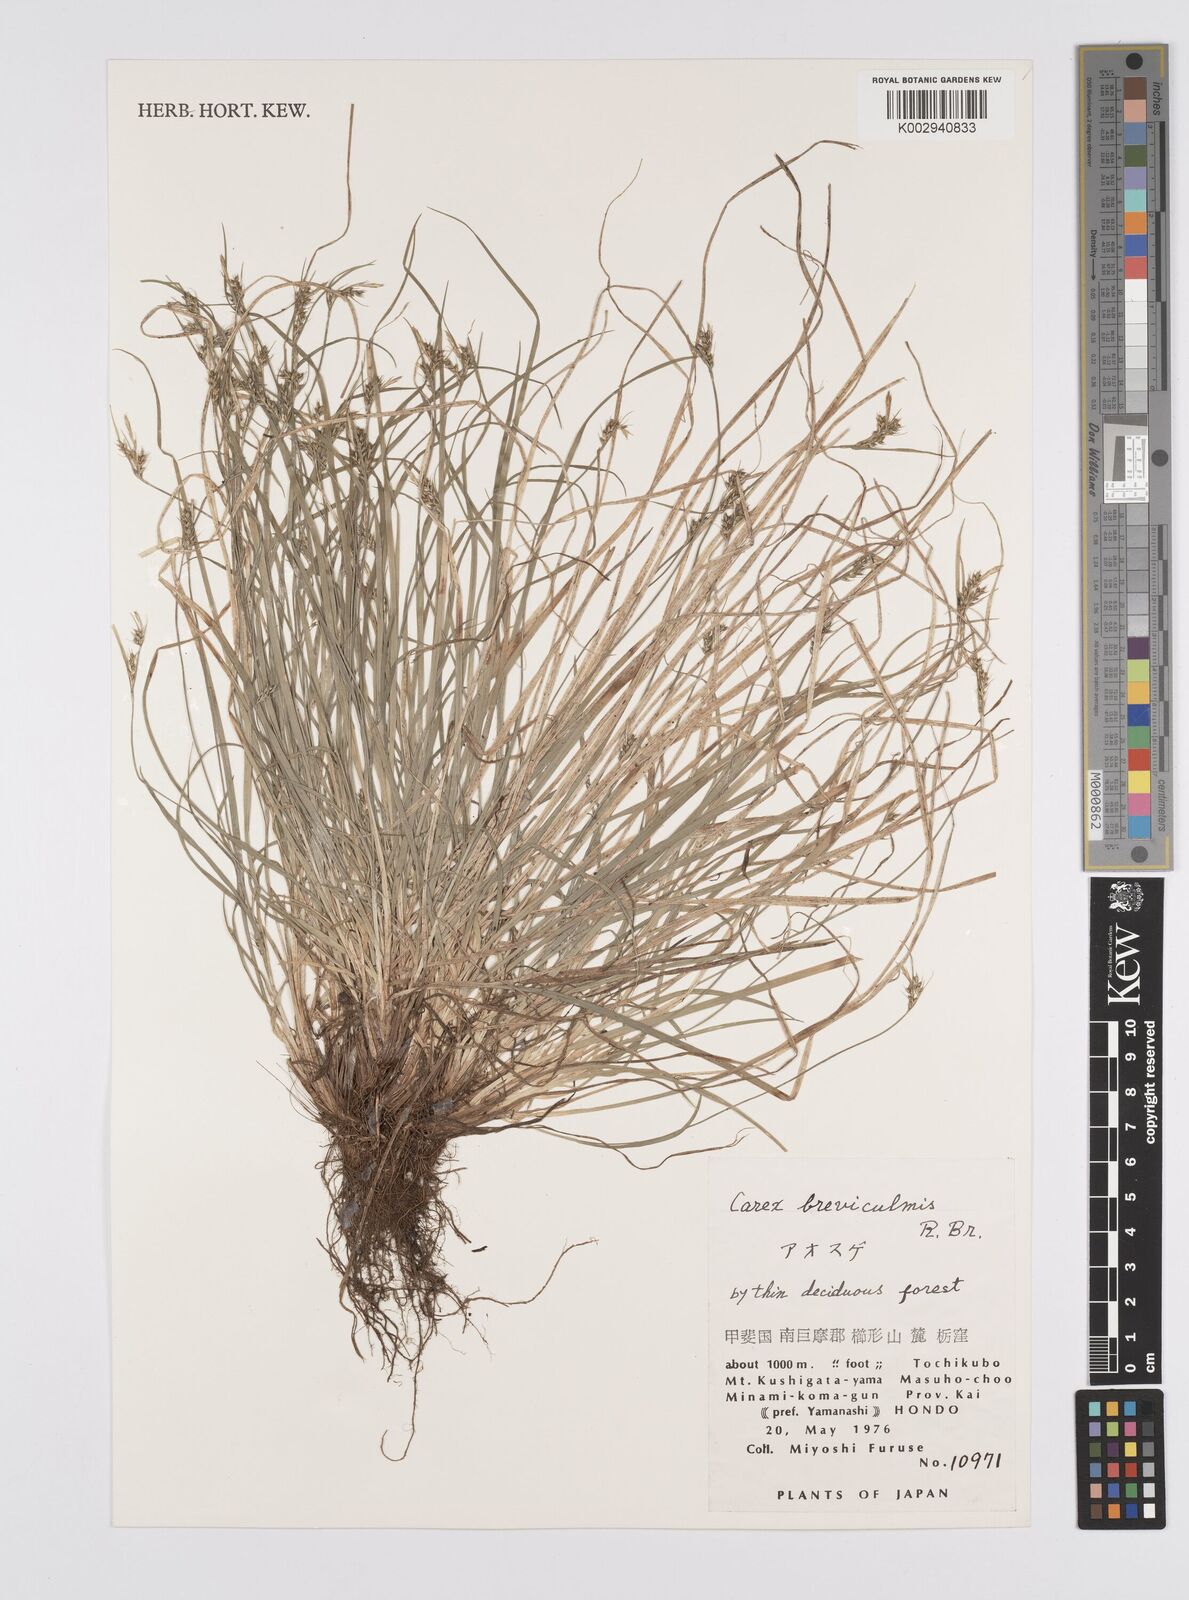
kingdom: Plantae
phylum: Tracheophyta
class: Liliopsida
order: Poales
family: Cyperaceae
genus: Carex
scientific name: Carex breviculmis
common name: Asian shortstem sedge
